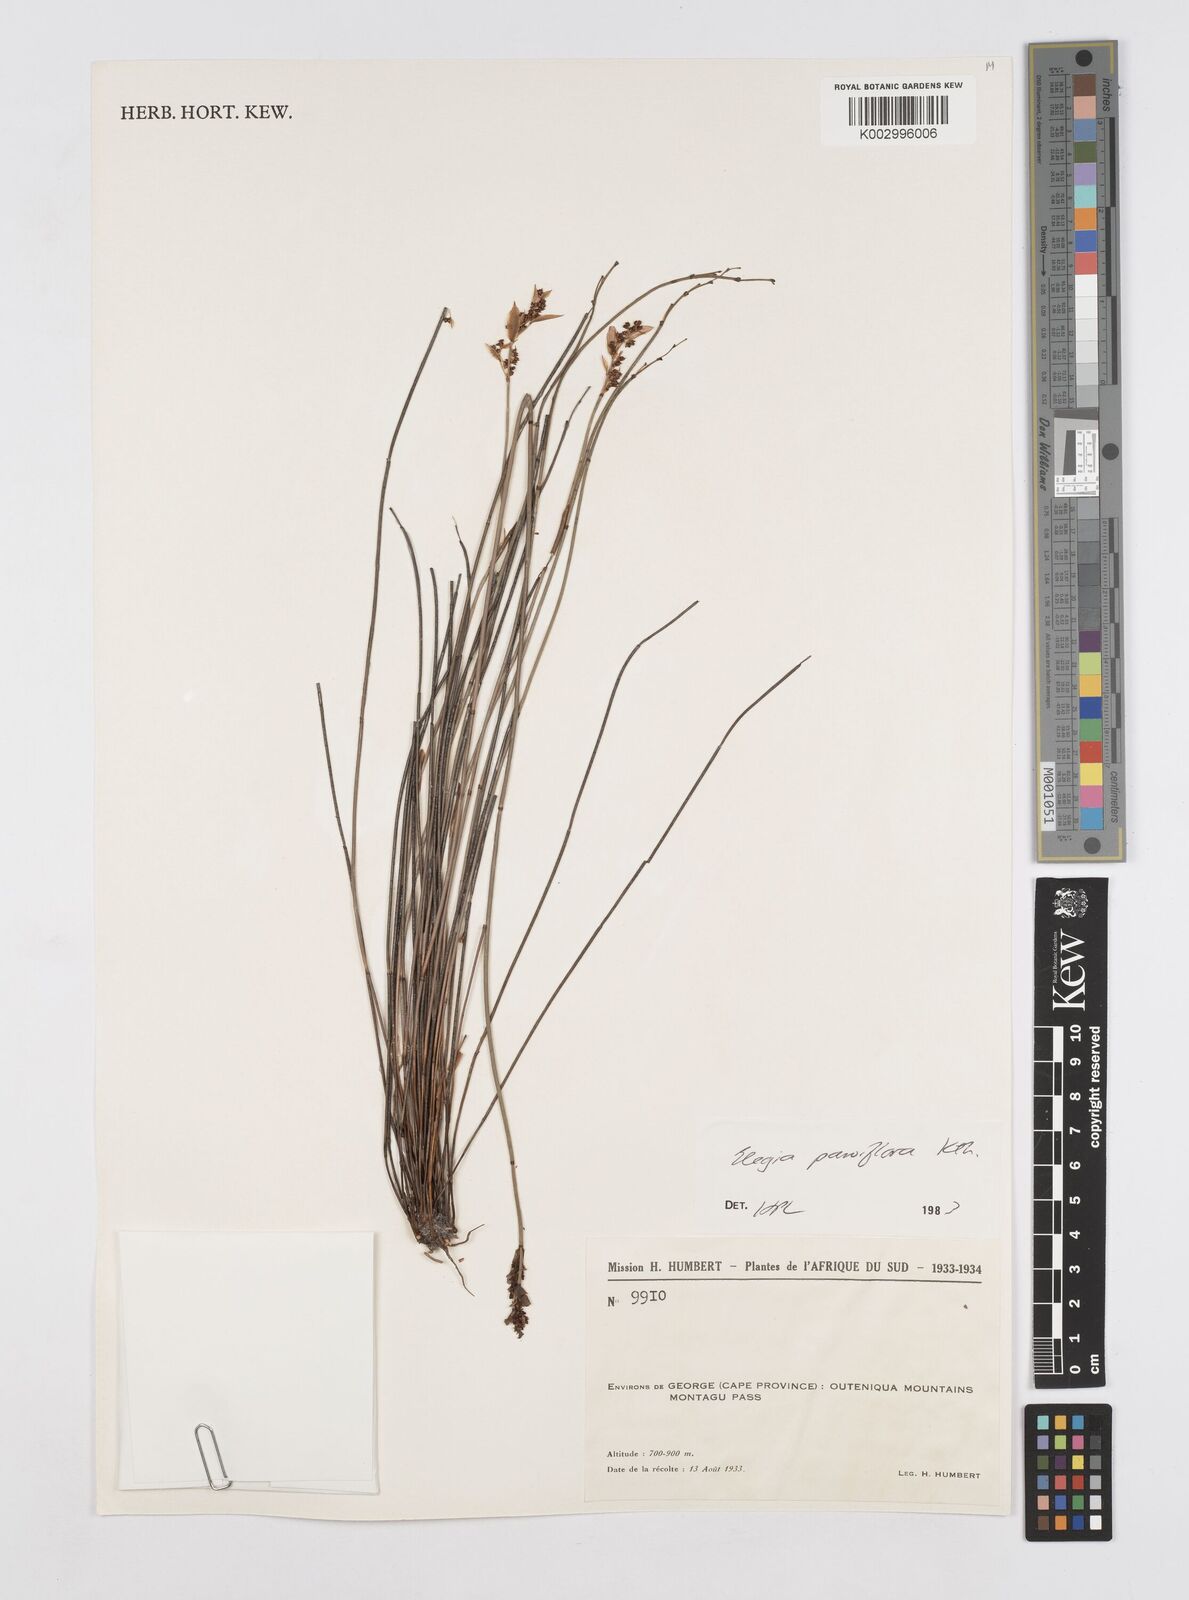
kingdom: Plantae
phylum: Tracheophyta
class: Liliopsida
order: Poales
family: Restionaceae
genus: Cannomois
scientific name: Cannomois parviflora
